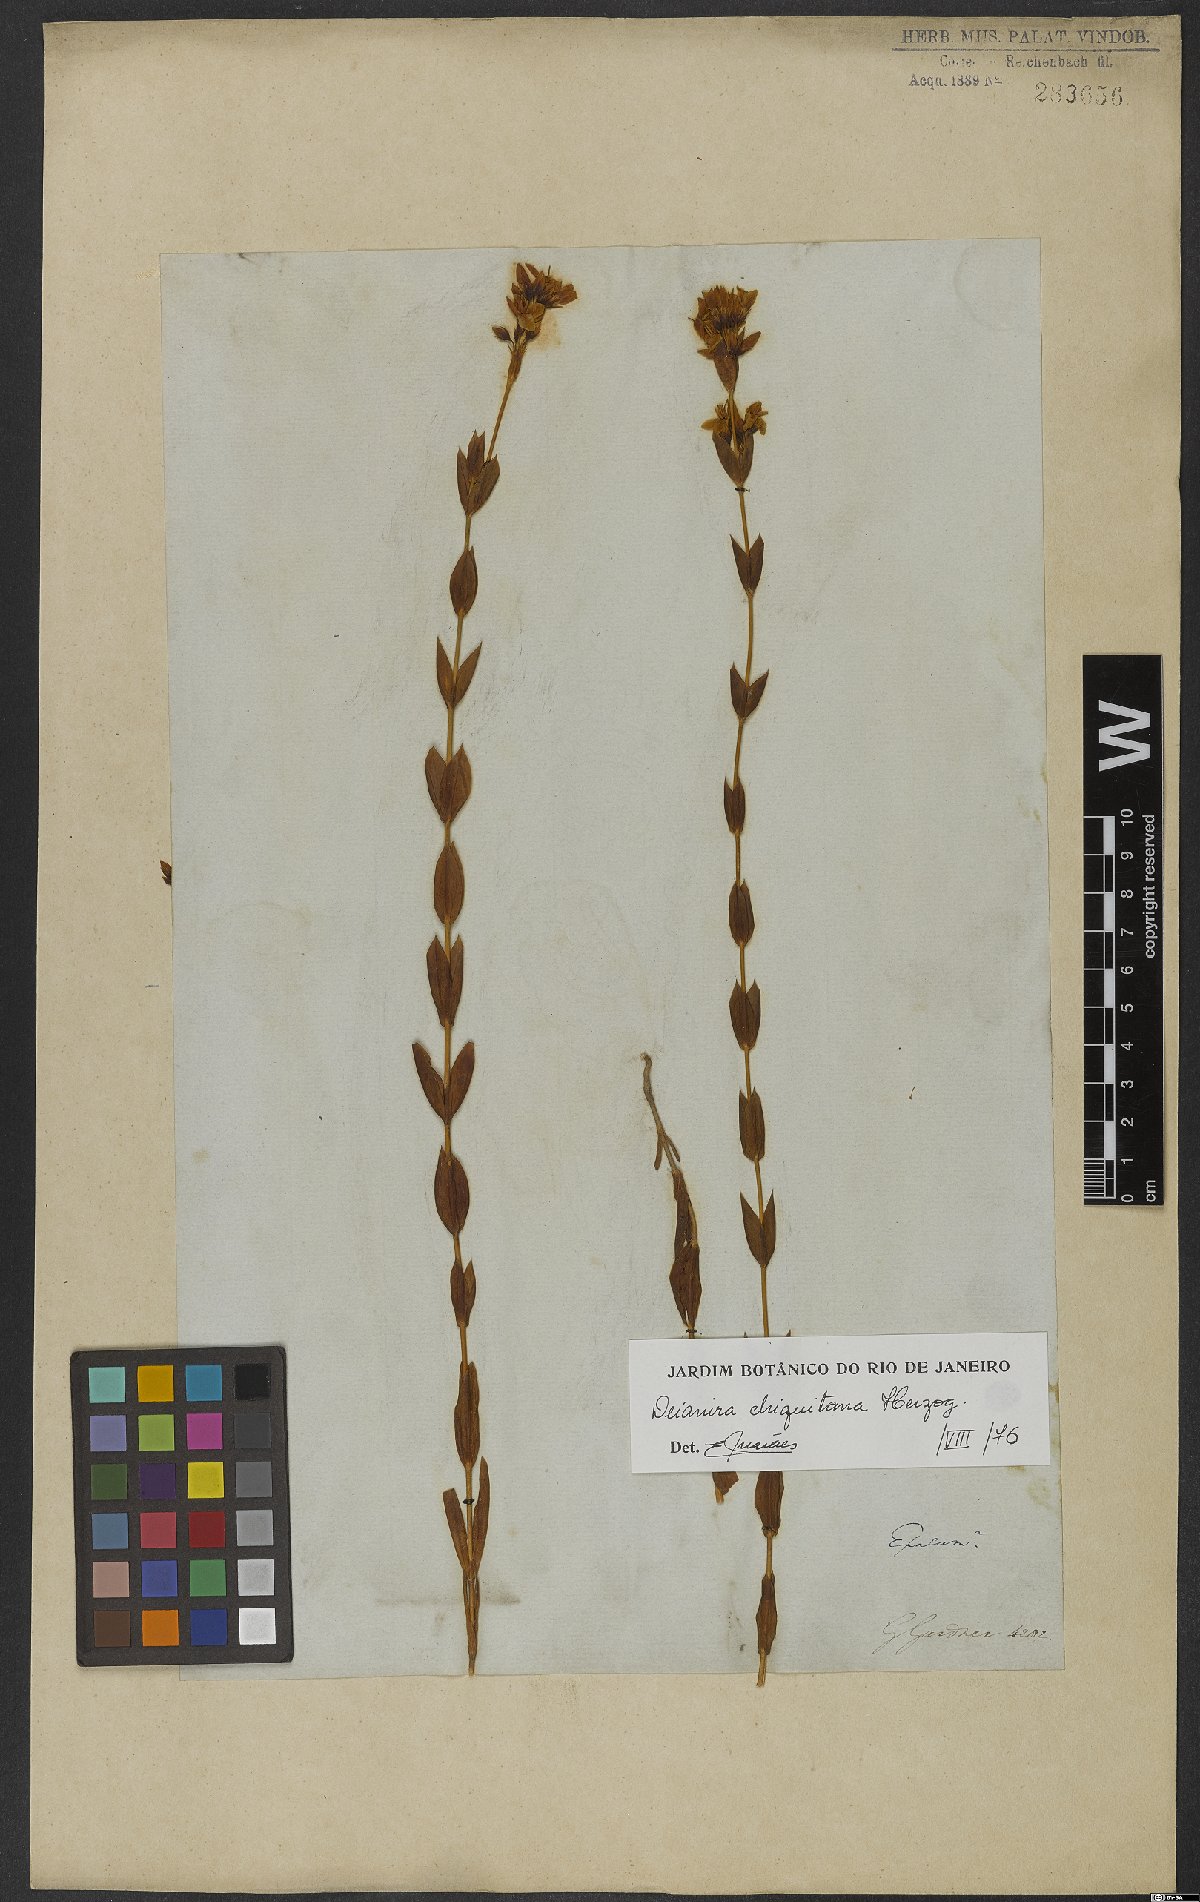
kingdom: Plantae
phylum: Tracheophyta
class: Magnoliopsida
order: Gentianales
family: Gentianaceae
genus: Deianira
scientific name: Deianira chiquitana
